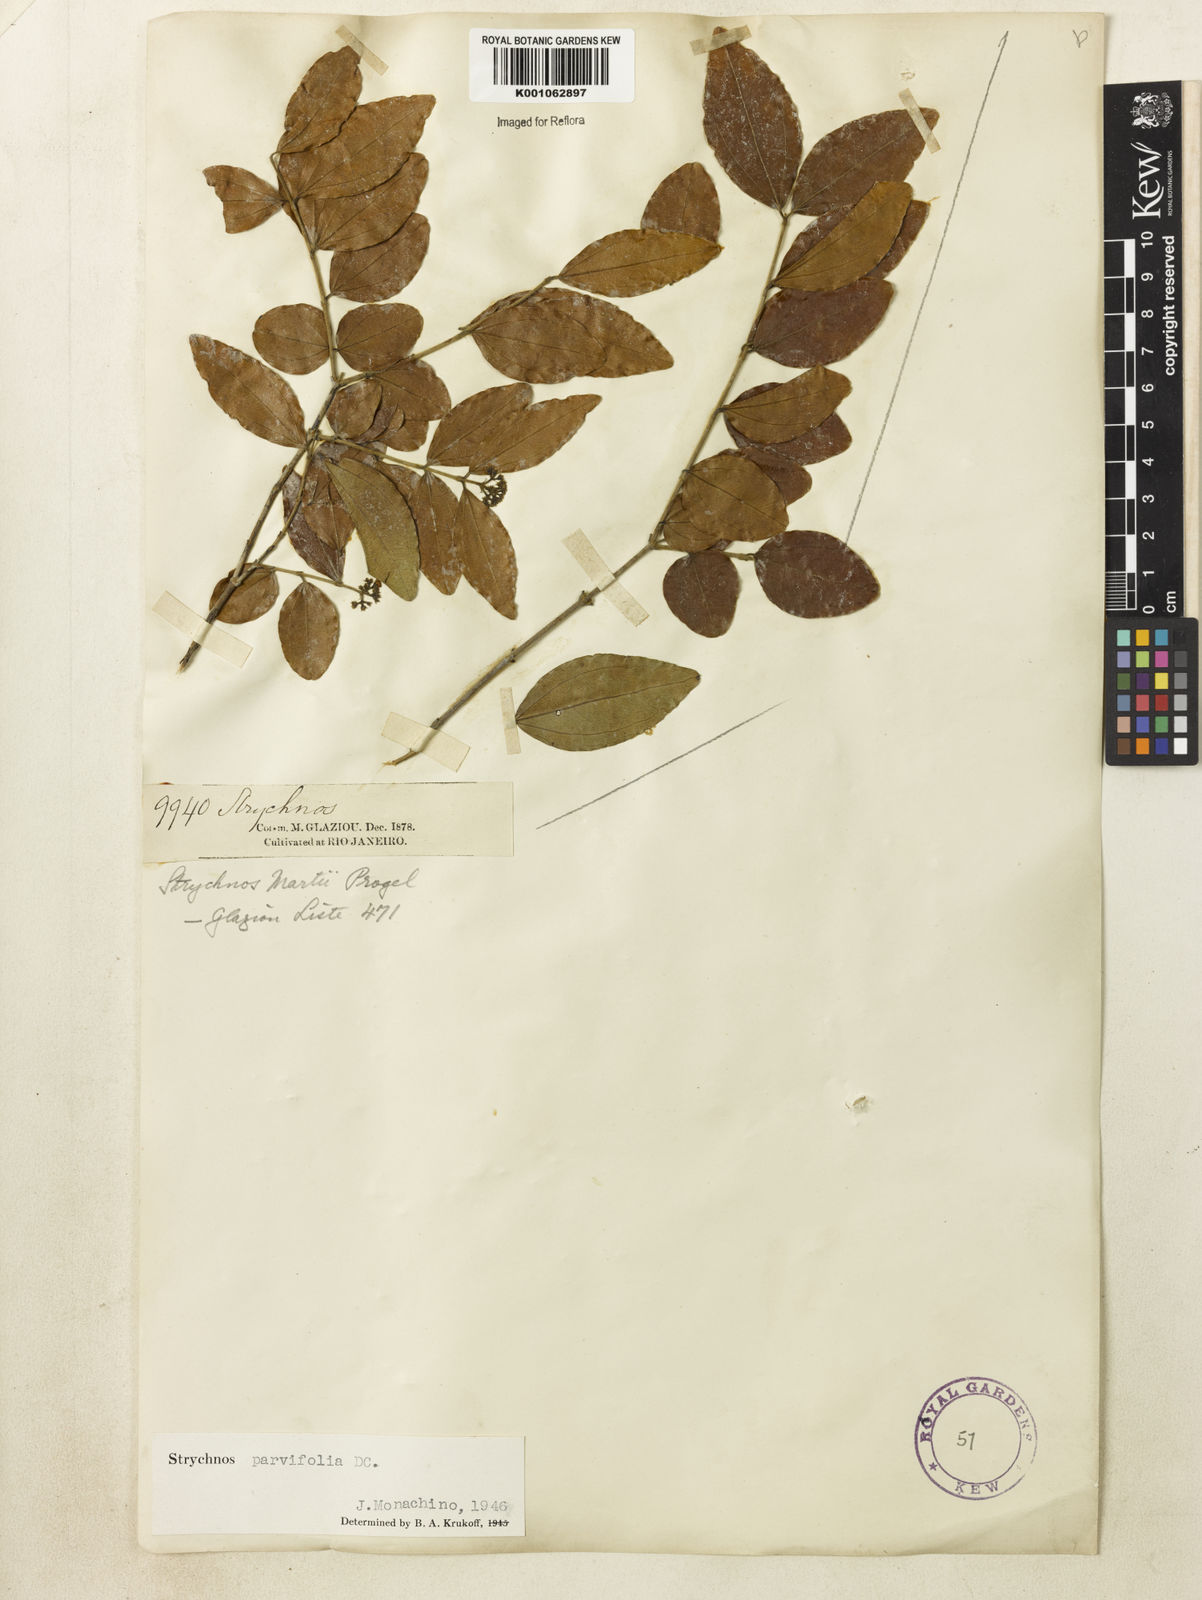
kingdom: Plantae
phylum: Tracheophyta
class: Magnoliopsida
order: Gentianales
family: Loganiaceae
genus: Strychnos
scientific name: Strychnos parvifolia
